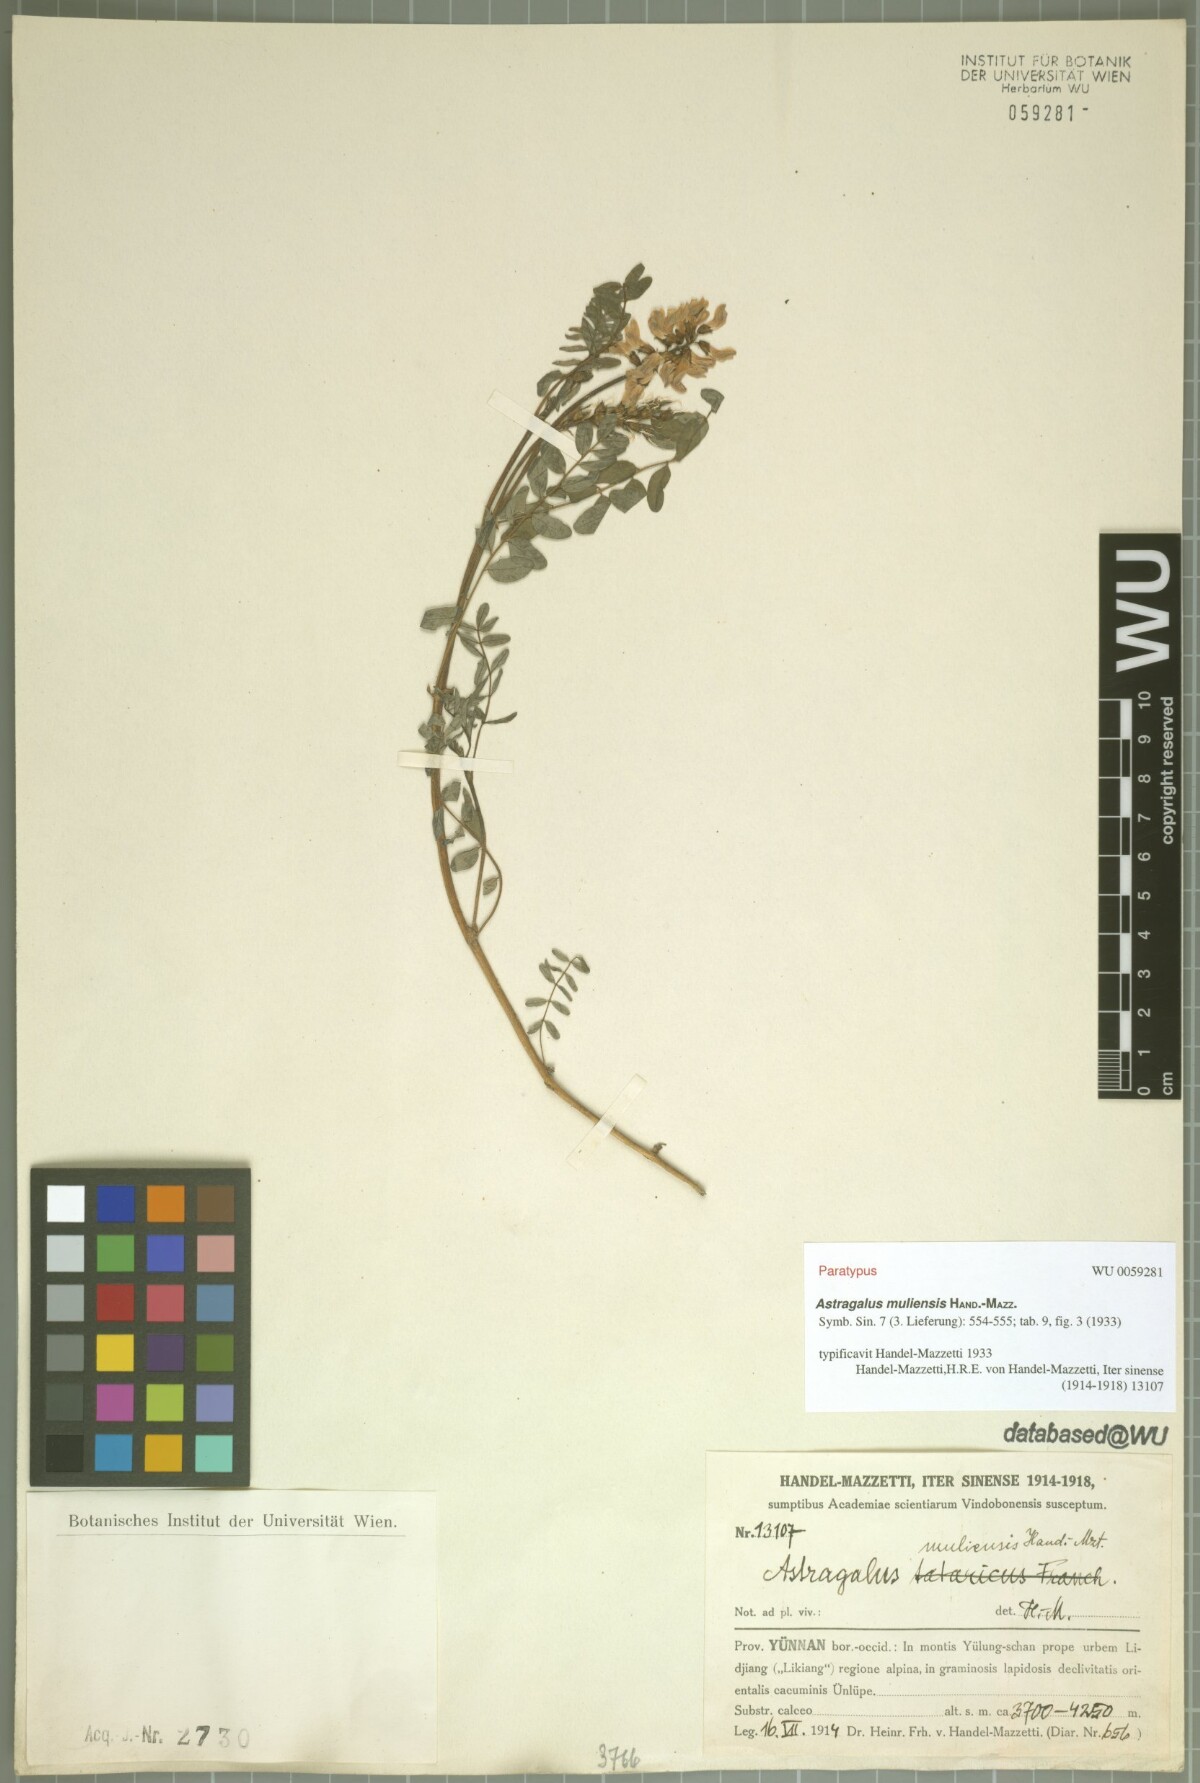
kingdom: Plantae
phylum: Tracheophyta
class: Magnoliopsida
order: Fabales
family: Fabaceae
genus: Astragalus
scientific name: Astragalus muliensis
